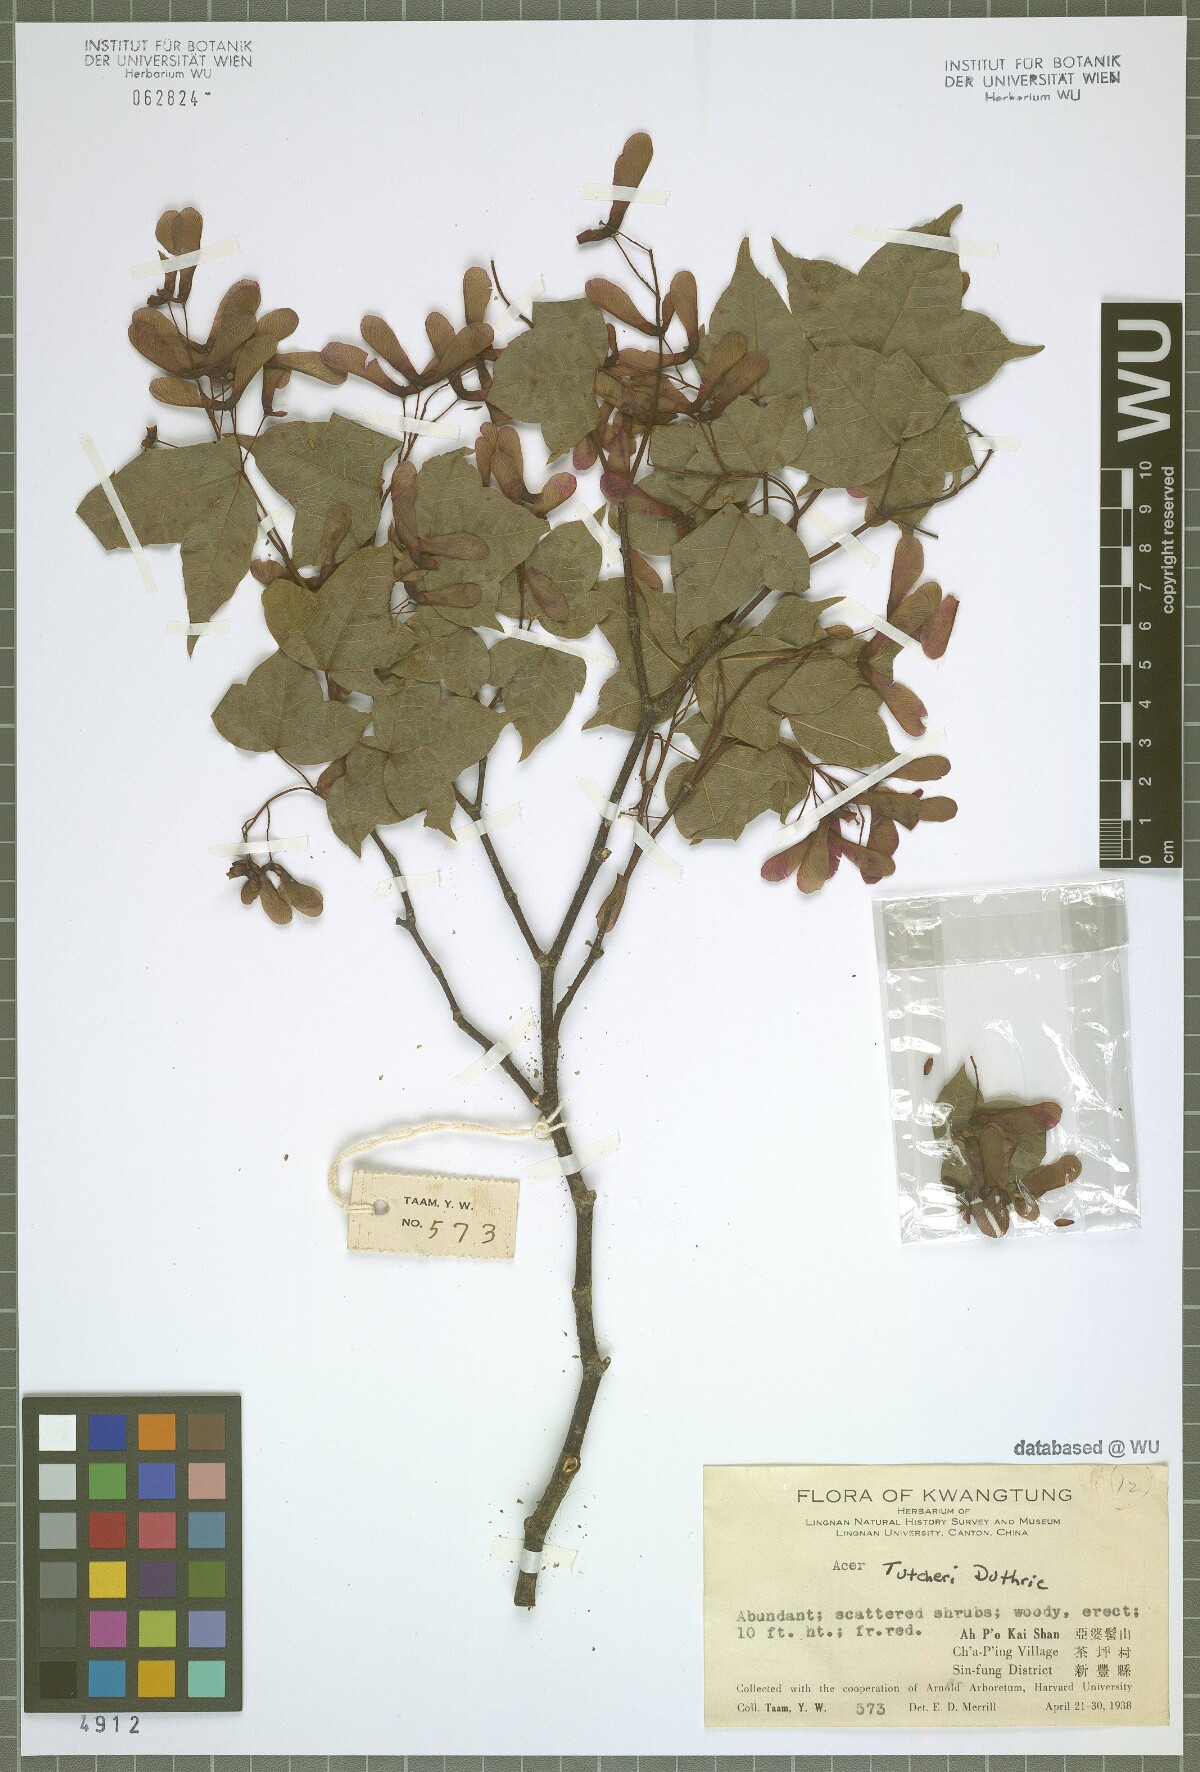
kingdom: Plantae
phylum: Tracheophyta
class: Magnoliopsida
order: Sapindales
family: Sapindaceae
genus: Acer
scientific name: Acer tutcheri
